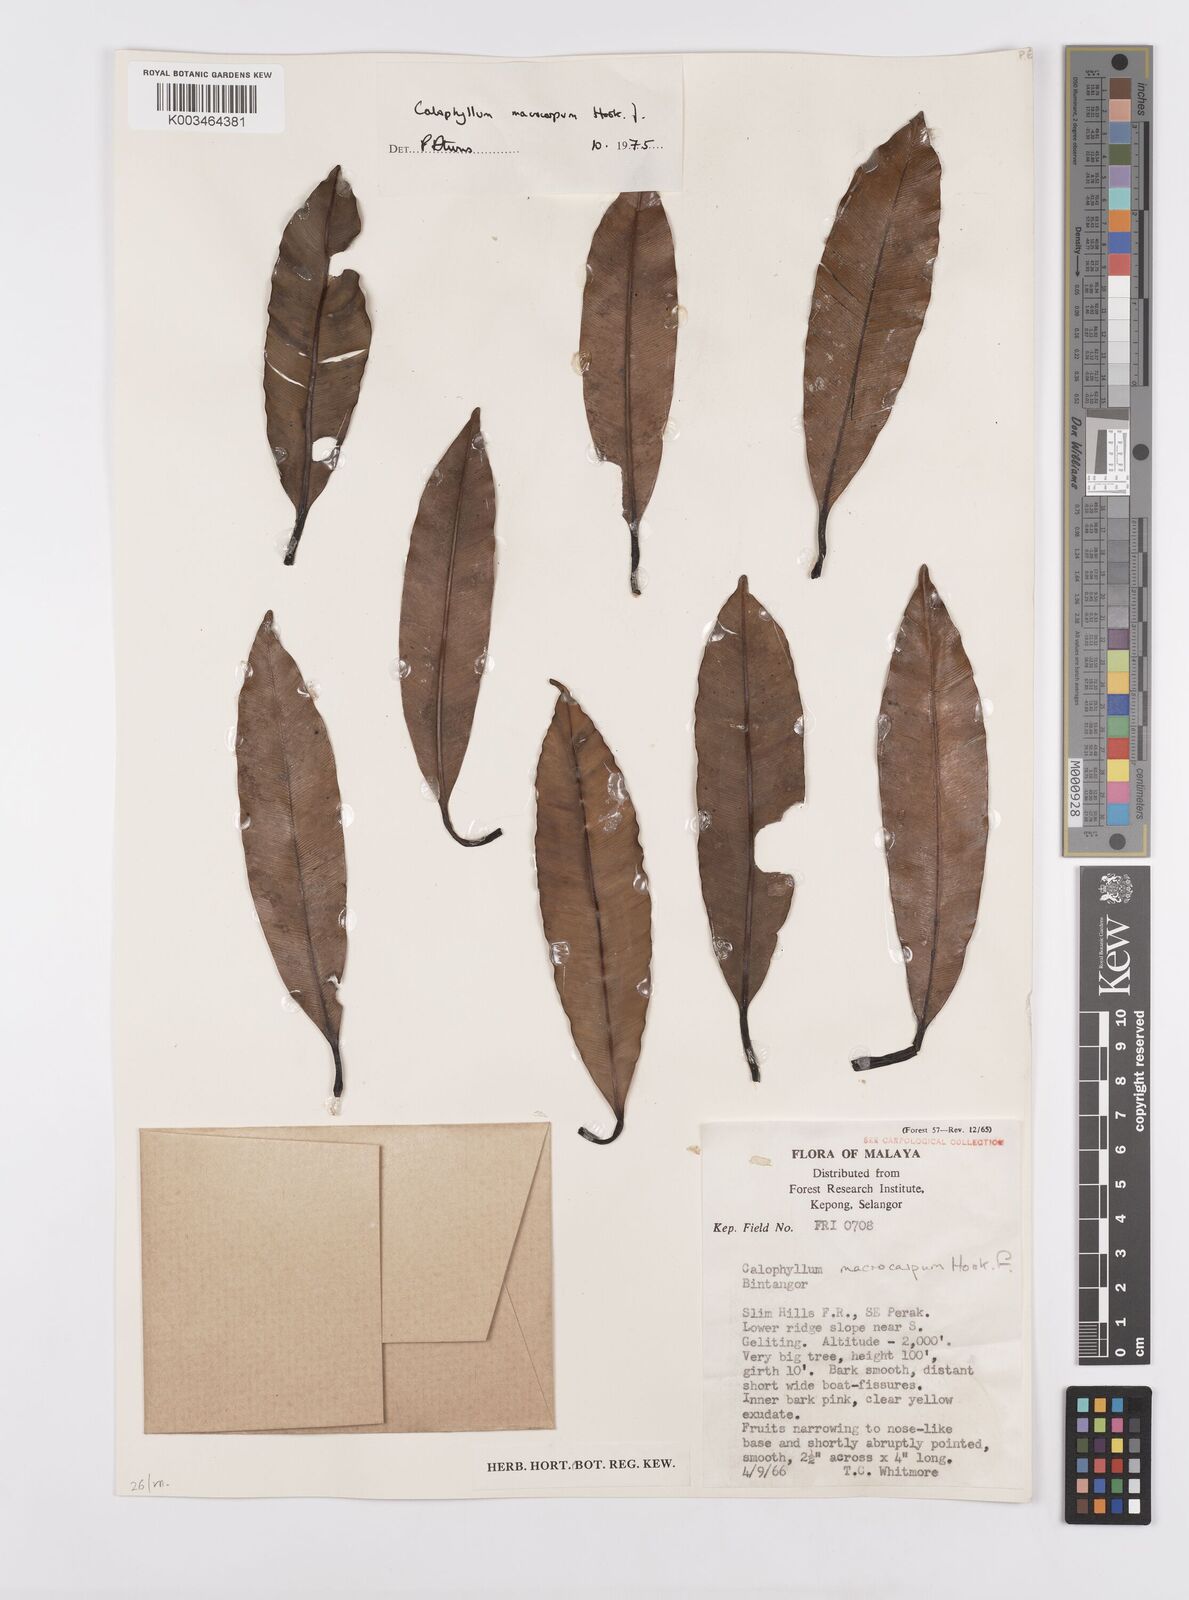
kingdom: Plantae
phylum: Tracheophyta
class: Magnoliopsida
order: Malpighiales
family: Calophyllaceae
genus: Calophyllum
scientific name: Calophyllum macrocarpum
